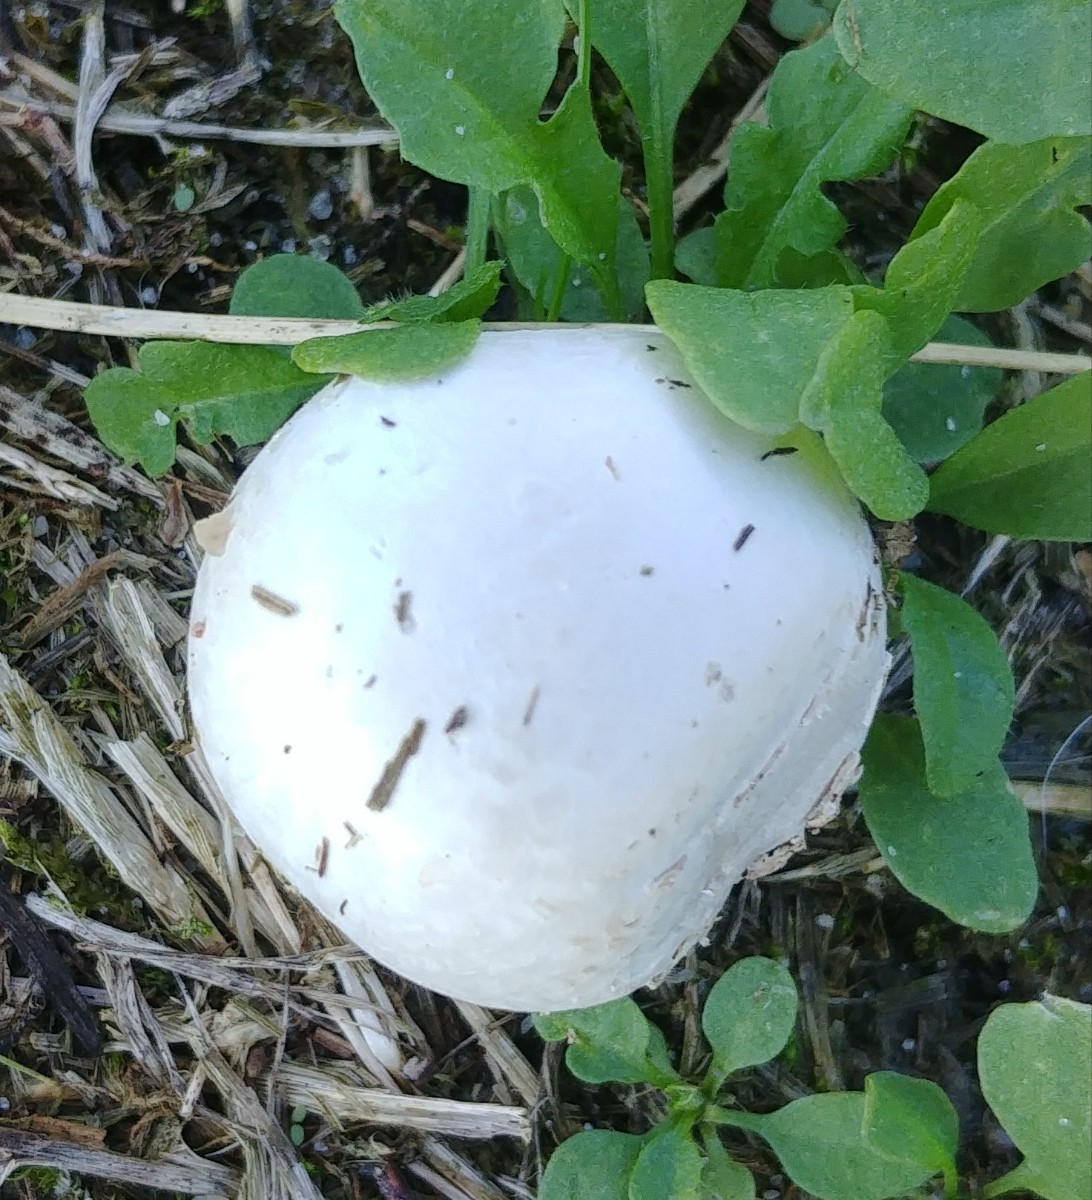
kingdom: Fungi
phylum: Basidiomycota
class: Agaricomycetes
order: Agaricales
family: Lycoperdaceae
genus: Bovista
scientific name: Bovista
